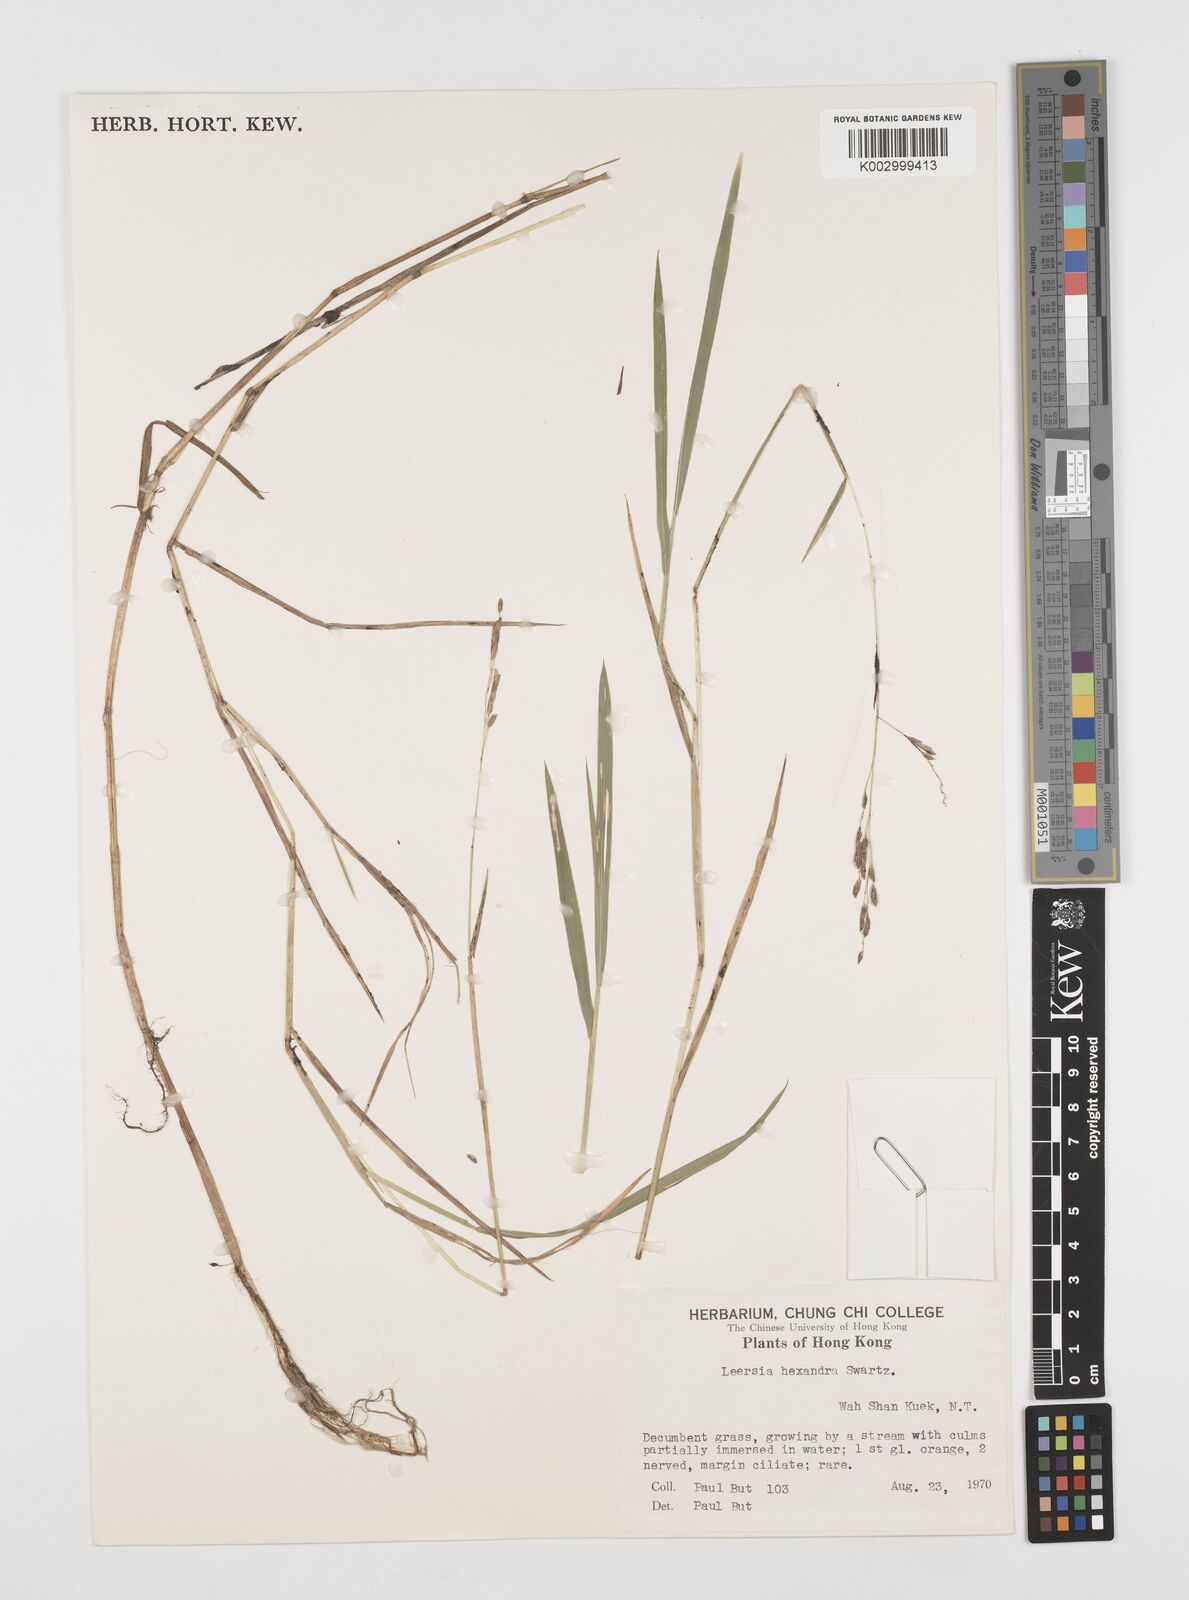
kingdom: Plantae
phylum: Tracheophyta
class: Liliopsida
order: Poales
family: Poaceae
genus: Leersia
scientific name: Leersia hexandra
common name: Southern cut grass
